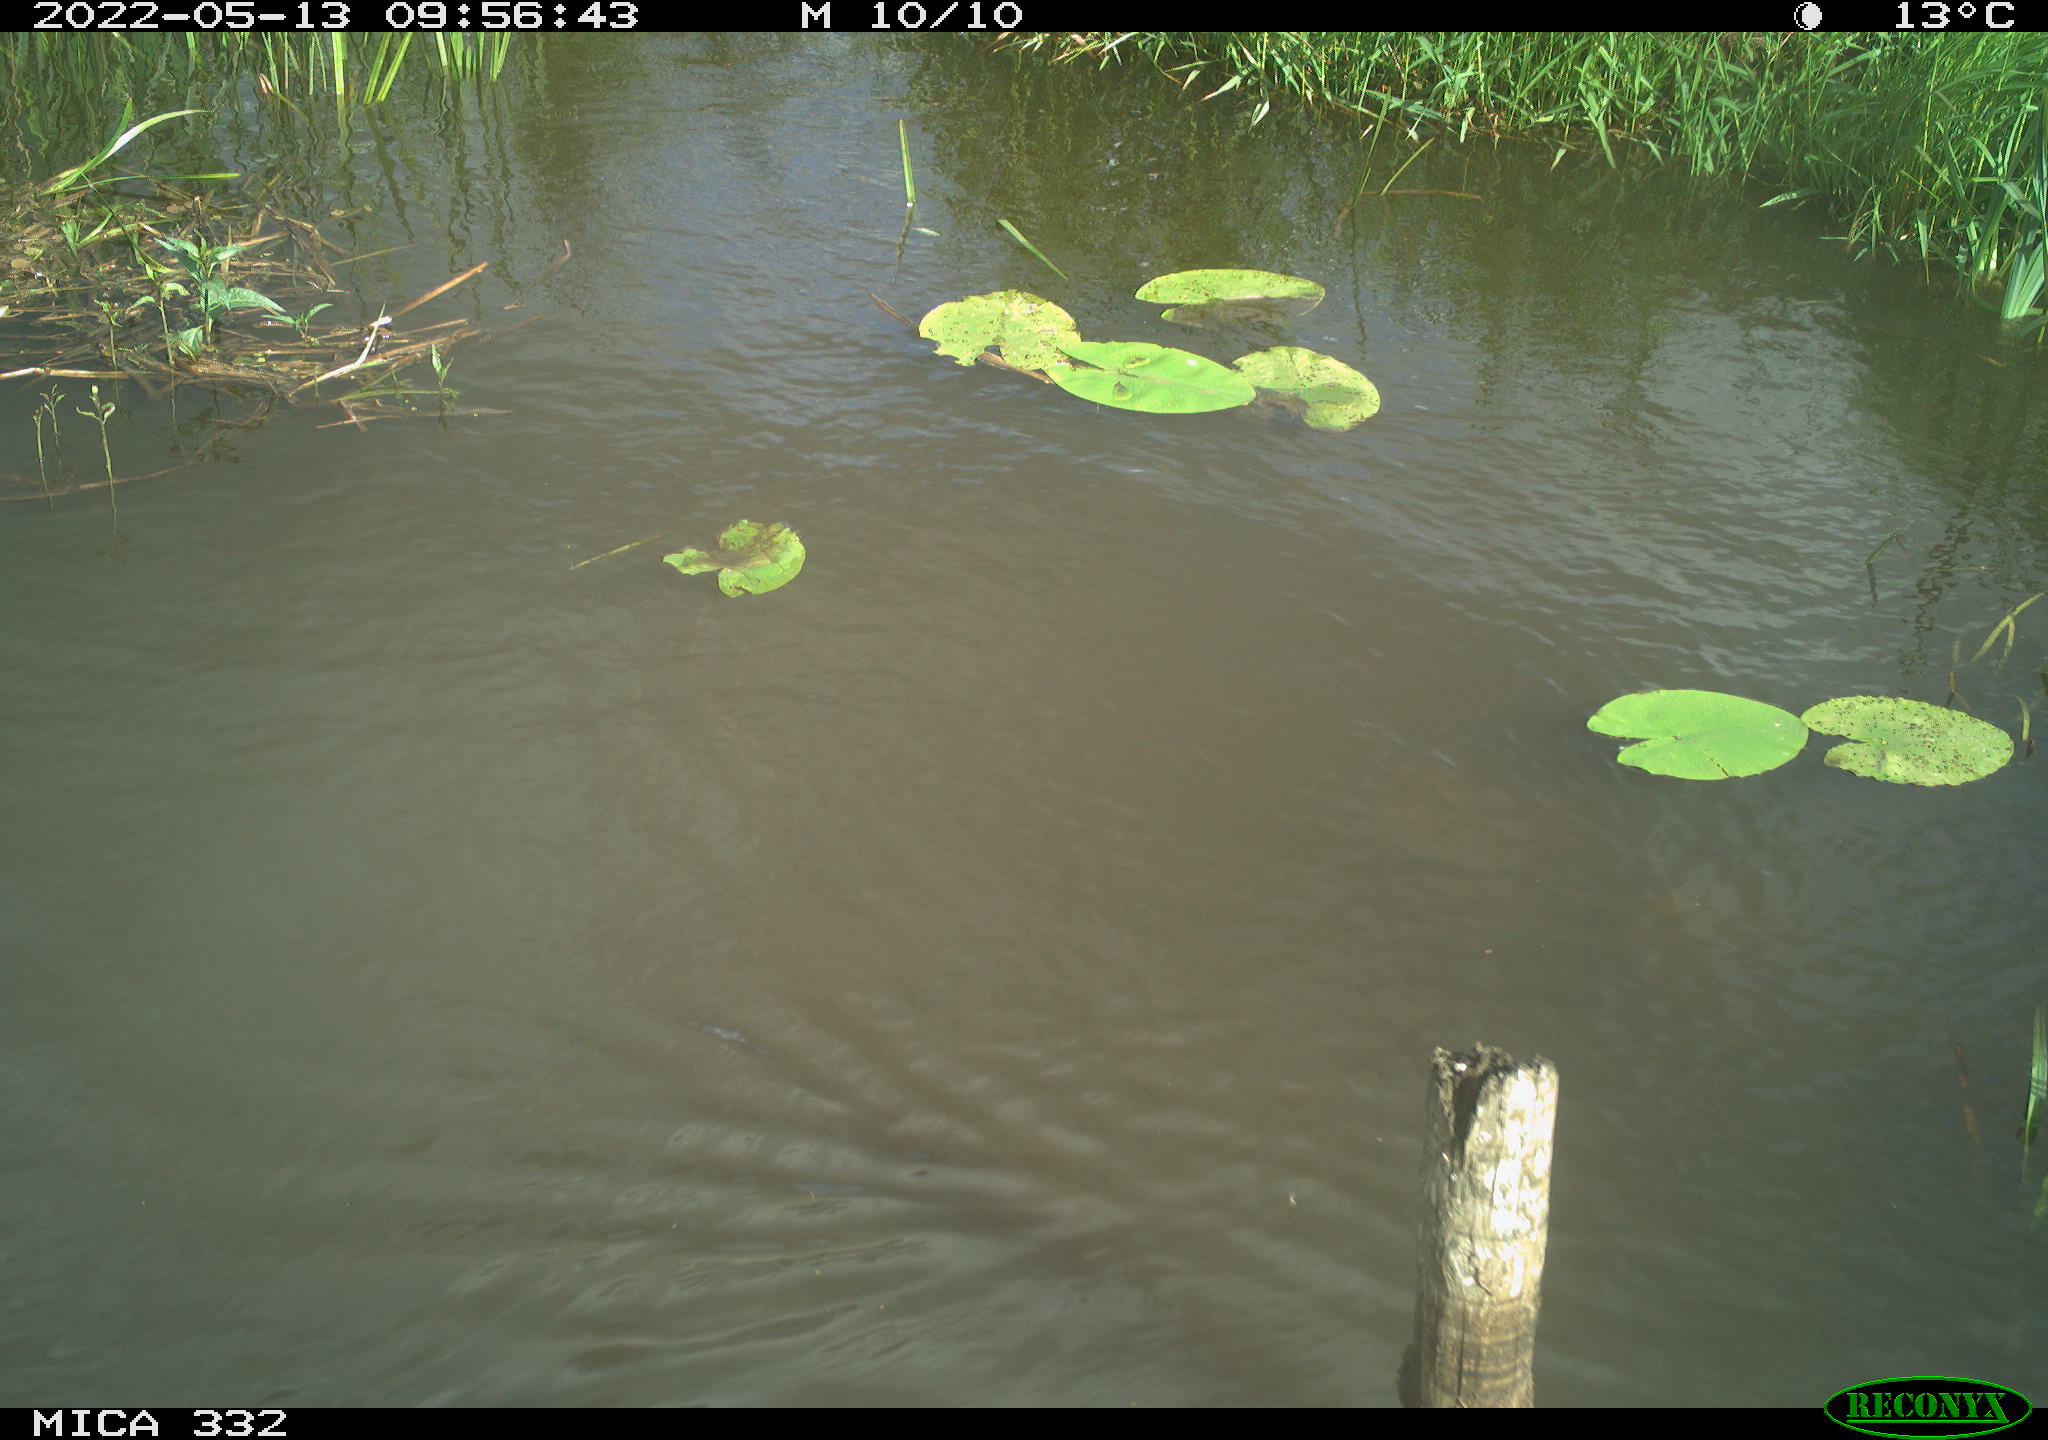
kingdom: Animalia
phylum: Chordata
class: Aves
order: Anseriformes
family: Anatidae
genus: Anas
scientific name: Anas platyrhynchos
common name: Mallard
